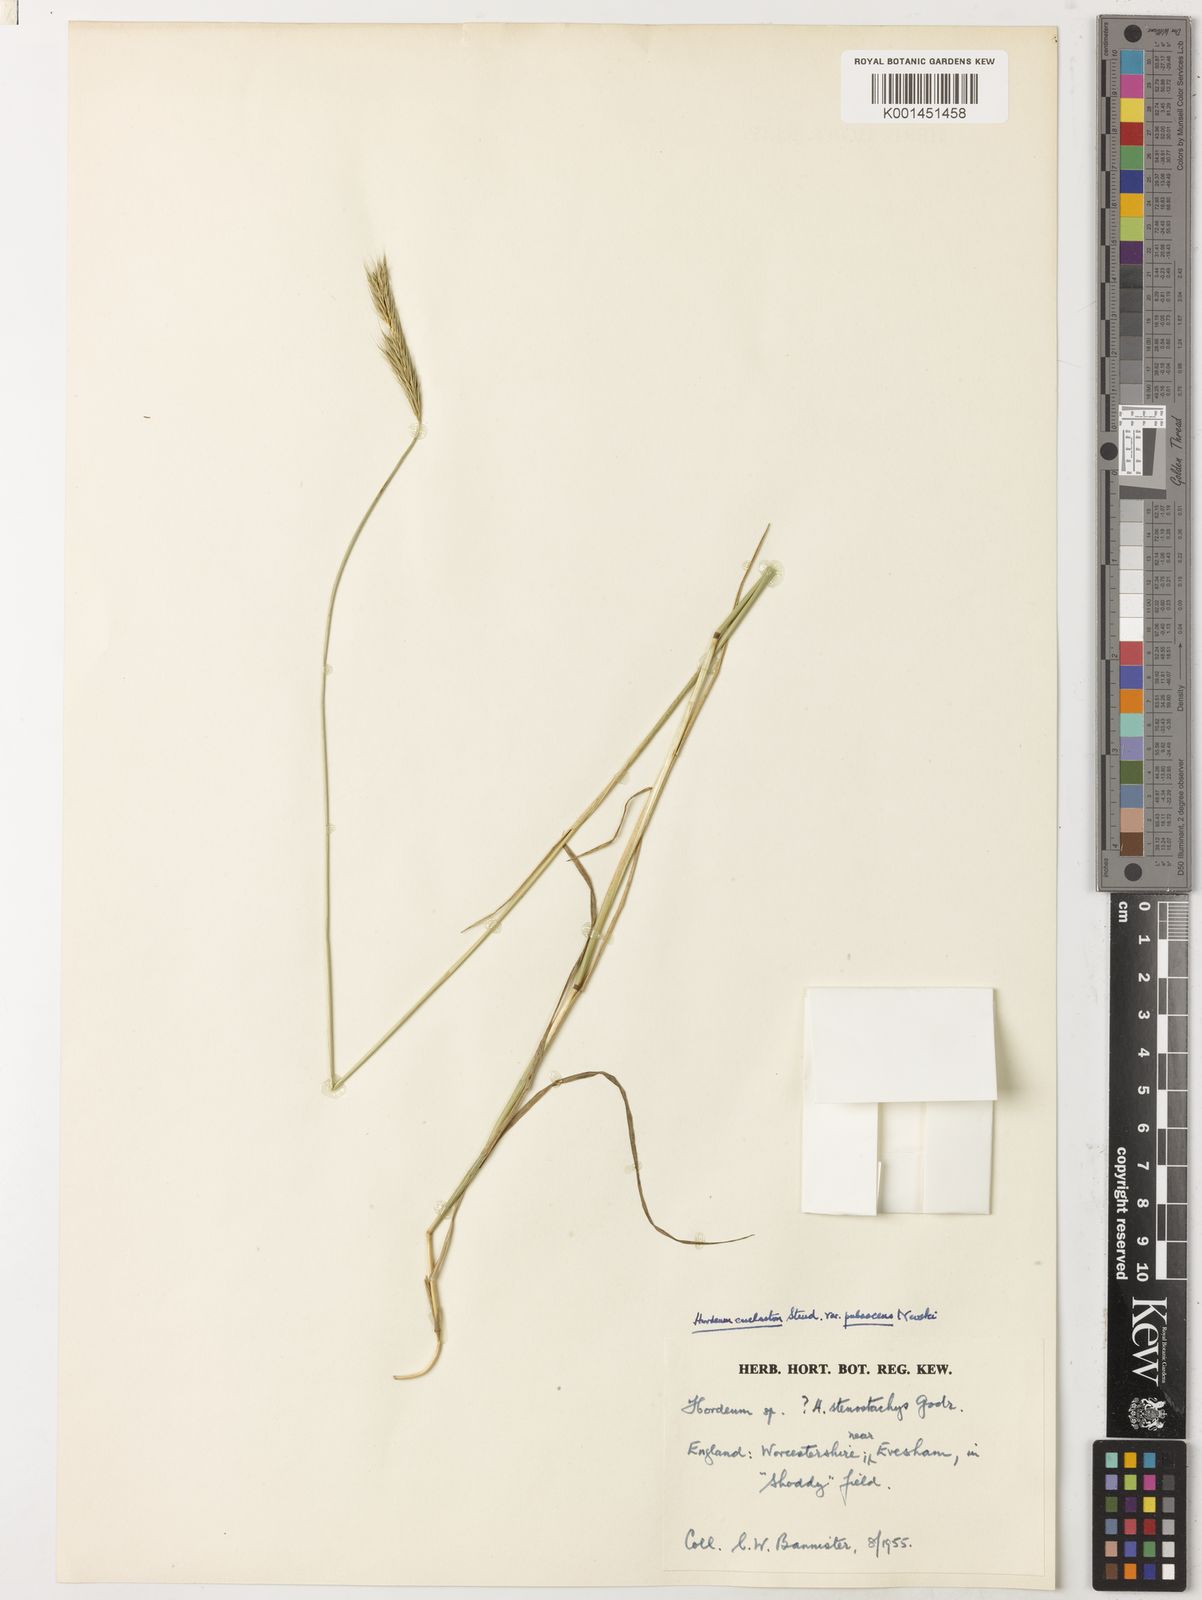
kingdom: Plantae
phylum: Tracheophyta
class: Liliopsida
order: Poales
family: Poaceae
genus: Hordeum
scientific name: Hordeum euclaston
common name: Argentine barley
